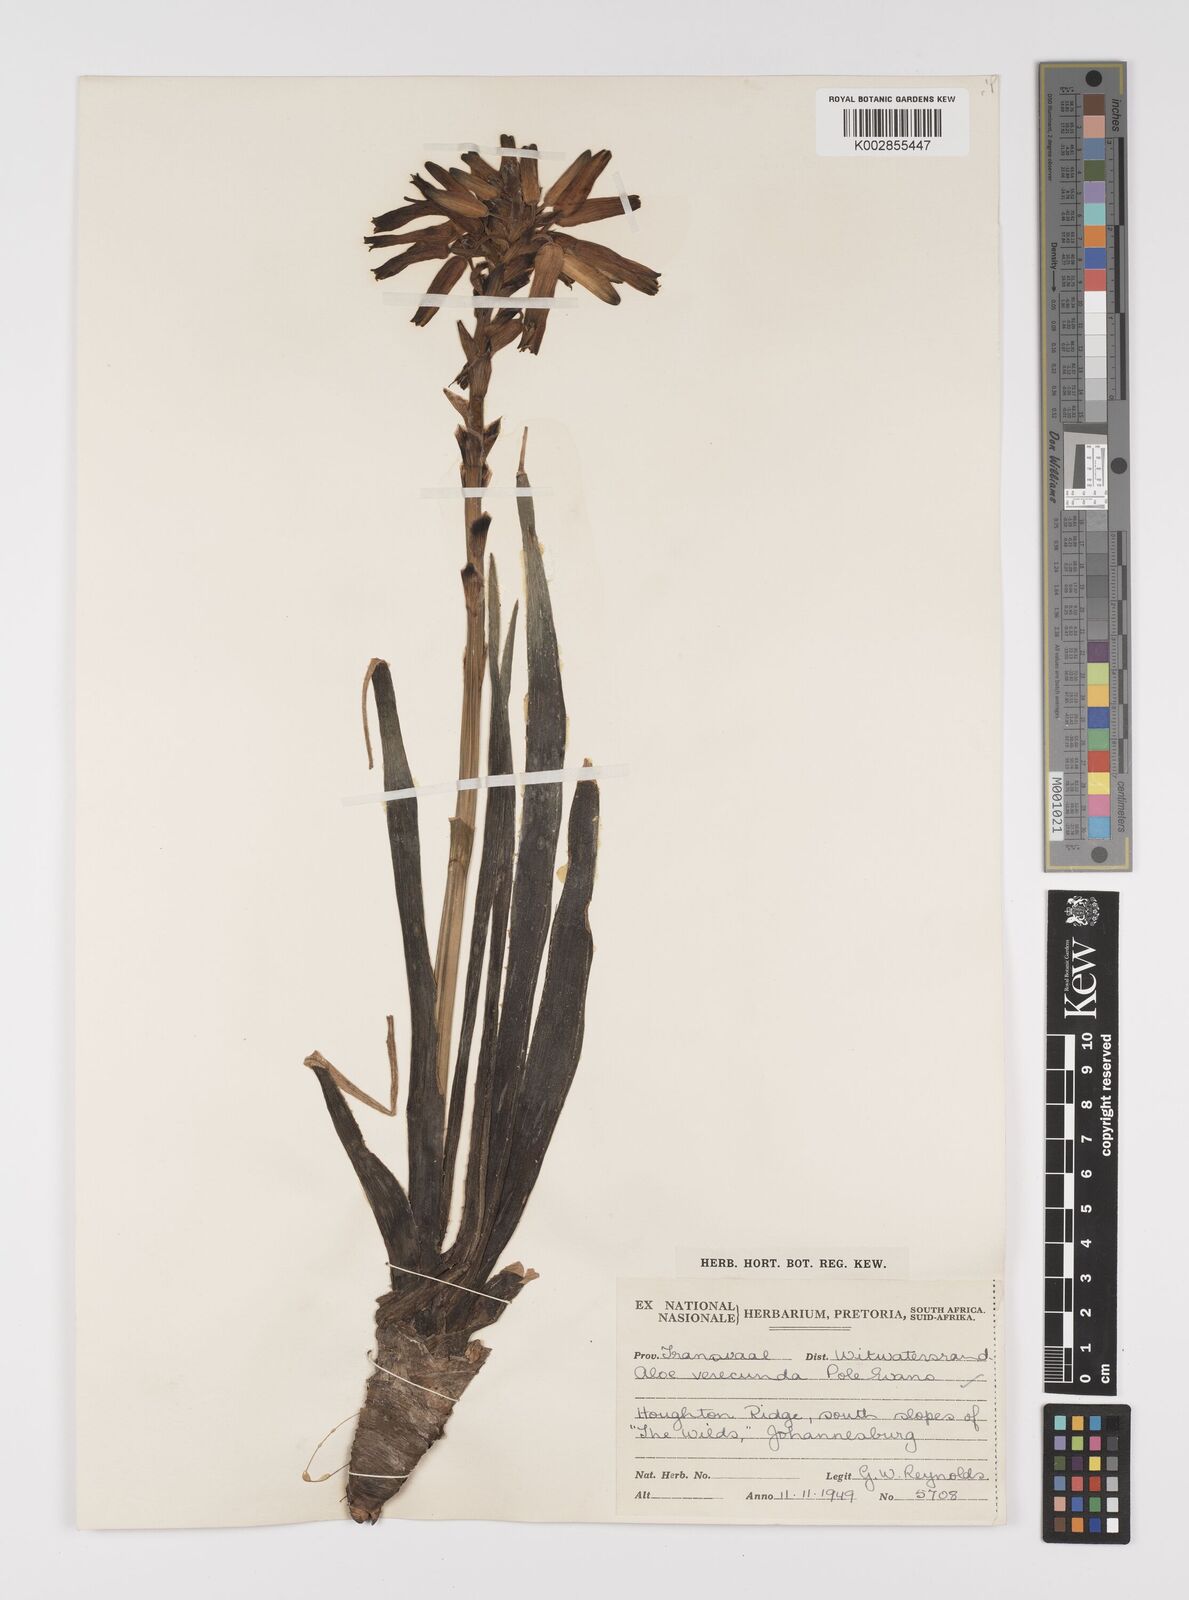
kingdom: Plantae
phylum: Tracheophyta
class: Liliopsida
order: Asparagales
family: Asphodelaceae
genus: Aloe
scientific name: Aloe verecunda
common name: Grass aloe
